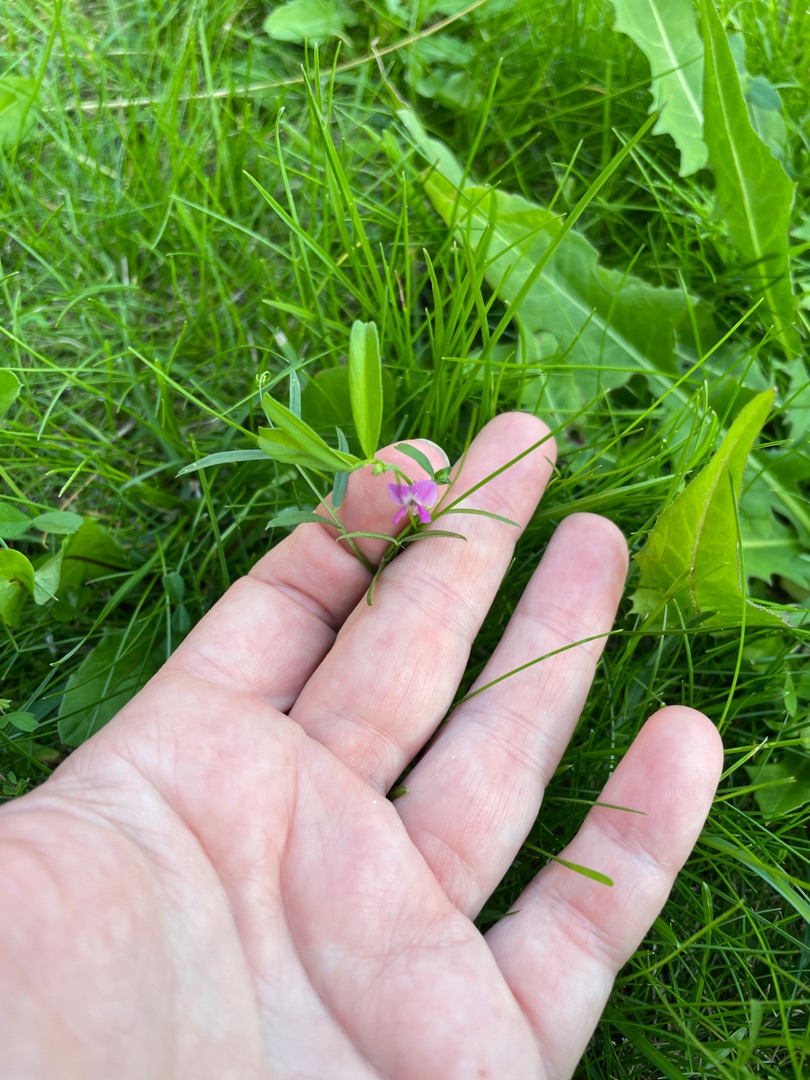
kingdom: Plantae
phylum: Tracheophyta
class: Magnoliopsida
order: Fabales
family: Fabaceae
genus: Vicia
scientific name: Vicia sativa
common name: Foder-vikke
